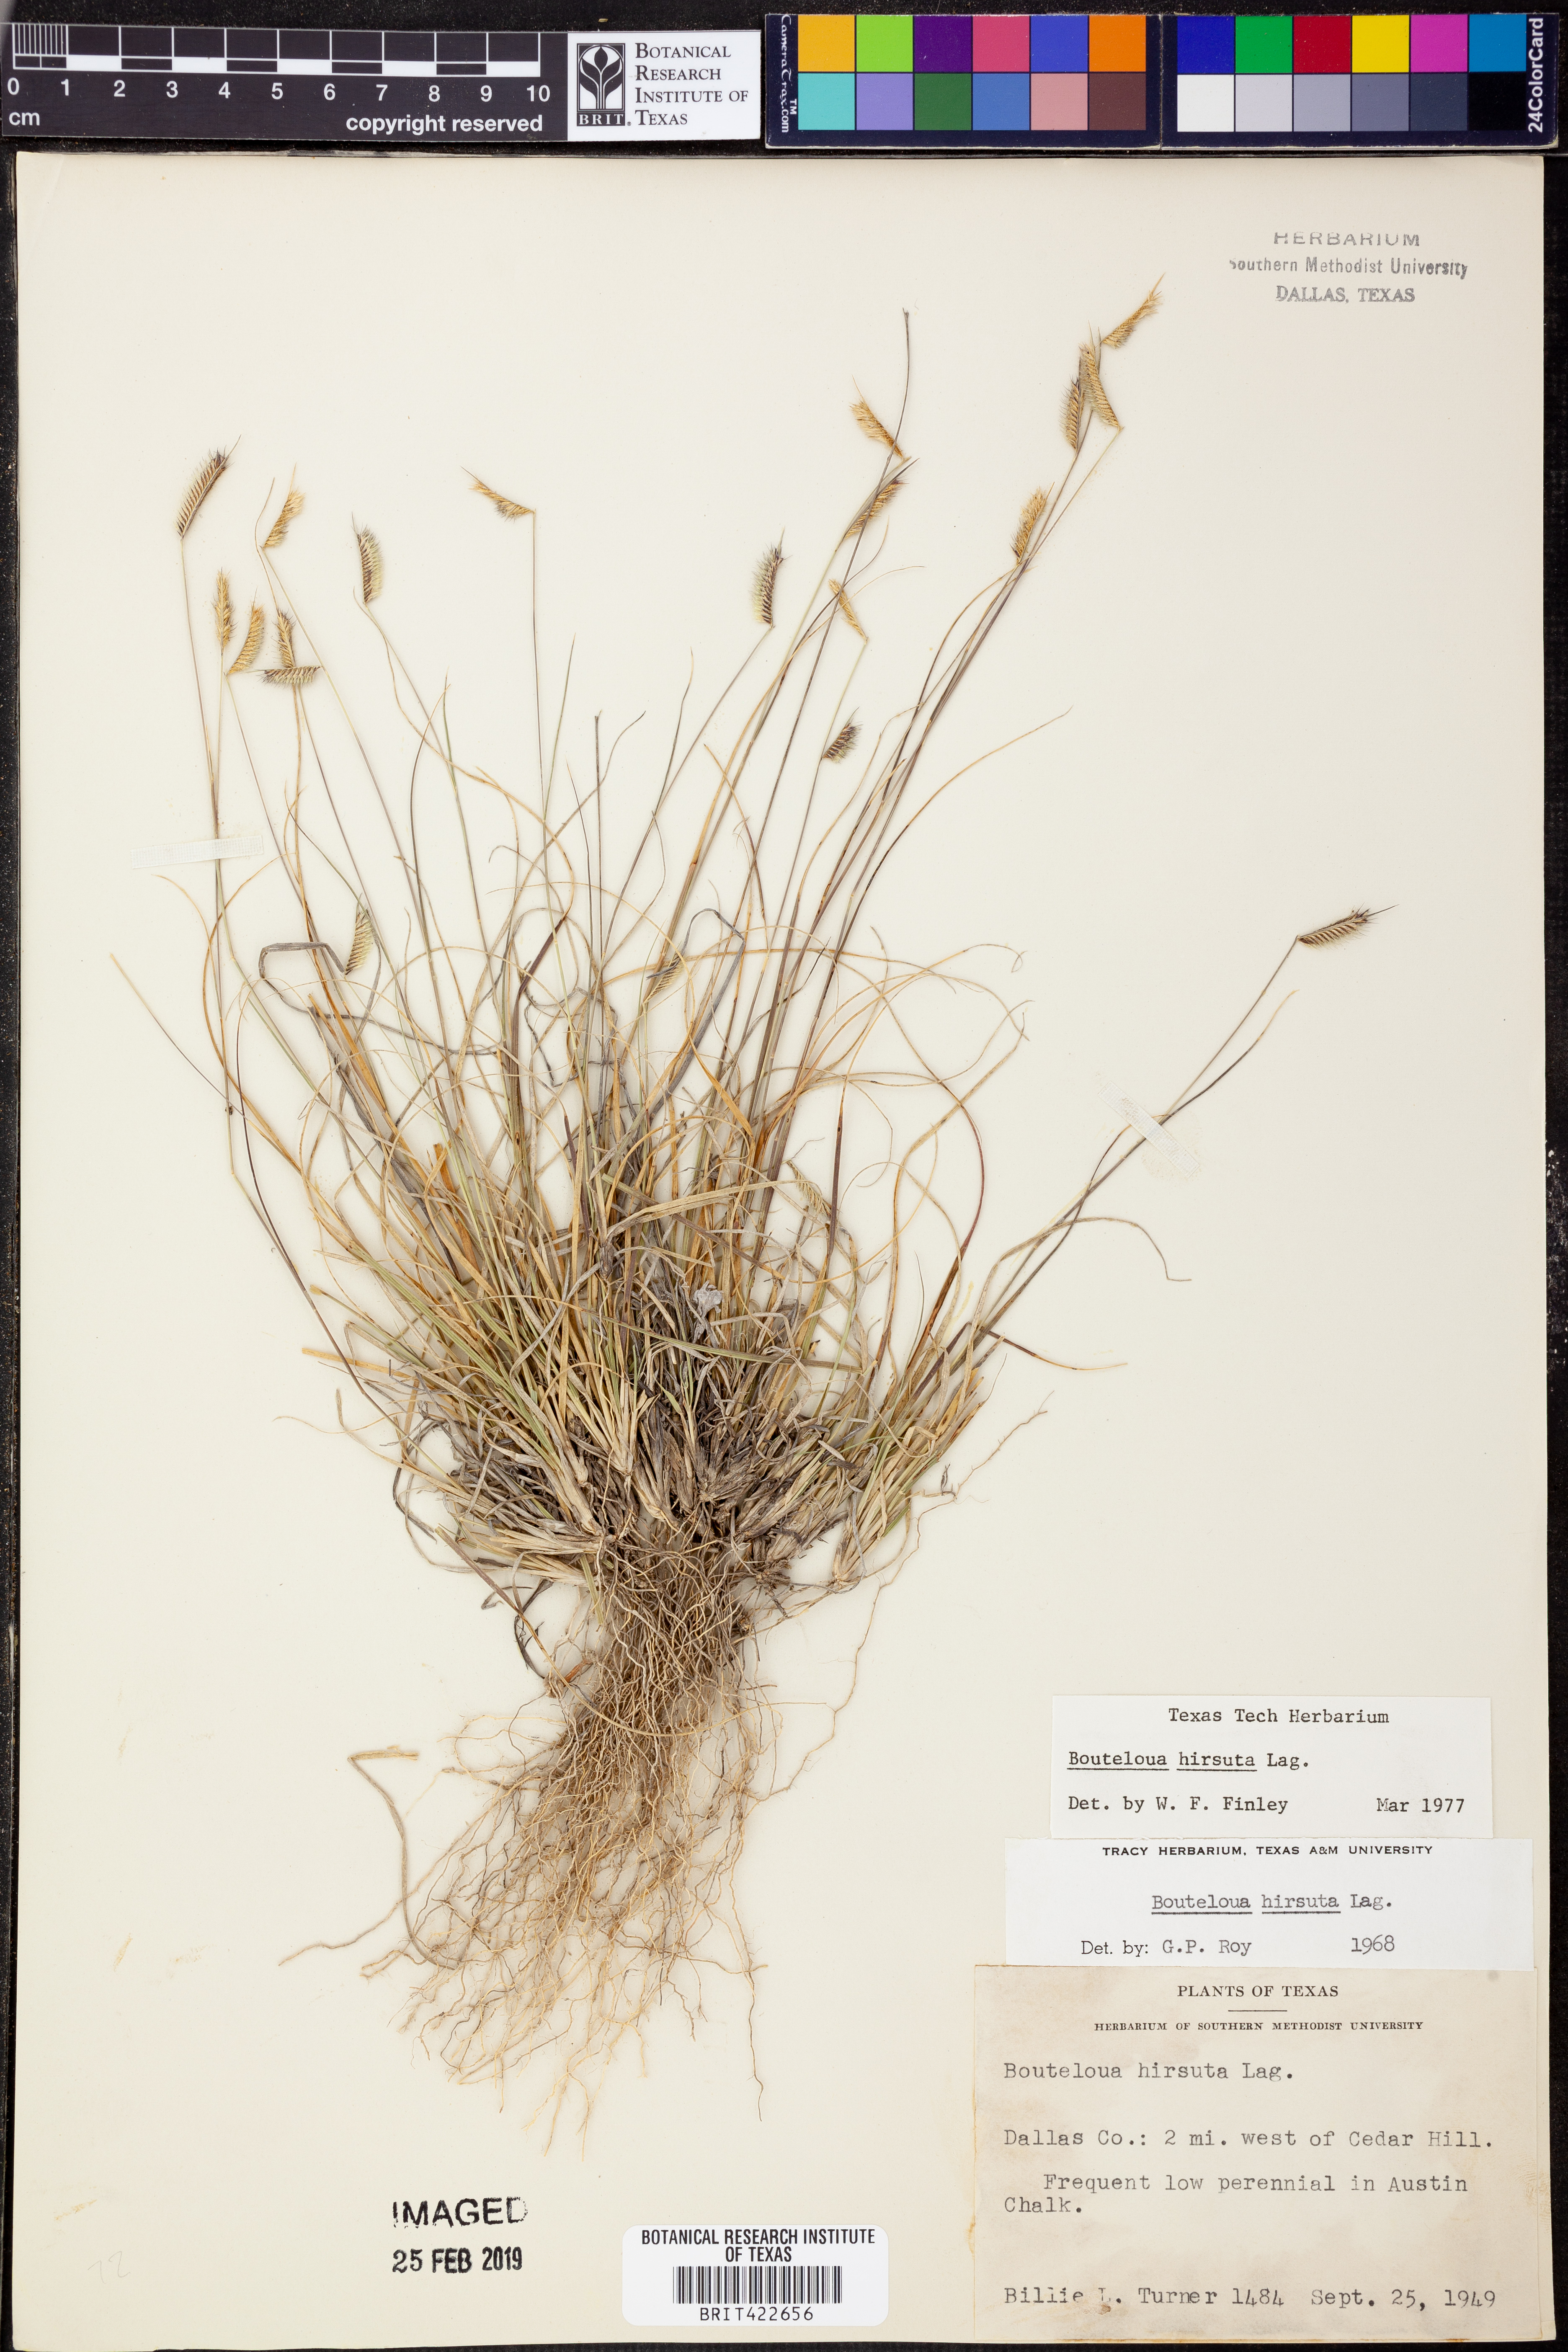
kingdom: Plantae
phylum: Tracheophyta
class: Liliopsida
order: Poales
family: Poaceae
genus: Bouteloua
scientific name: Bouteloua hirsuta
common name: Hairy grama
